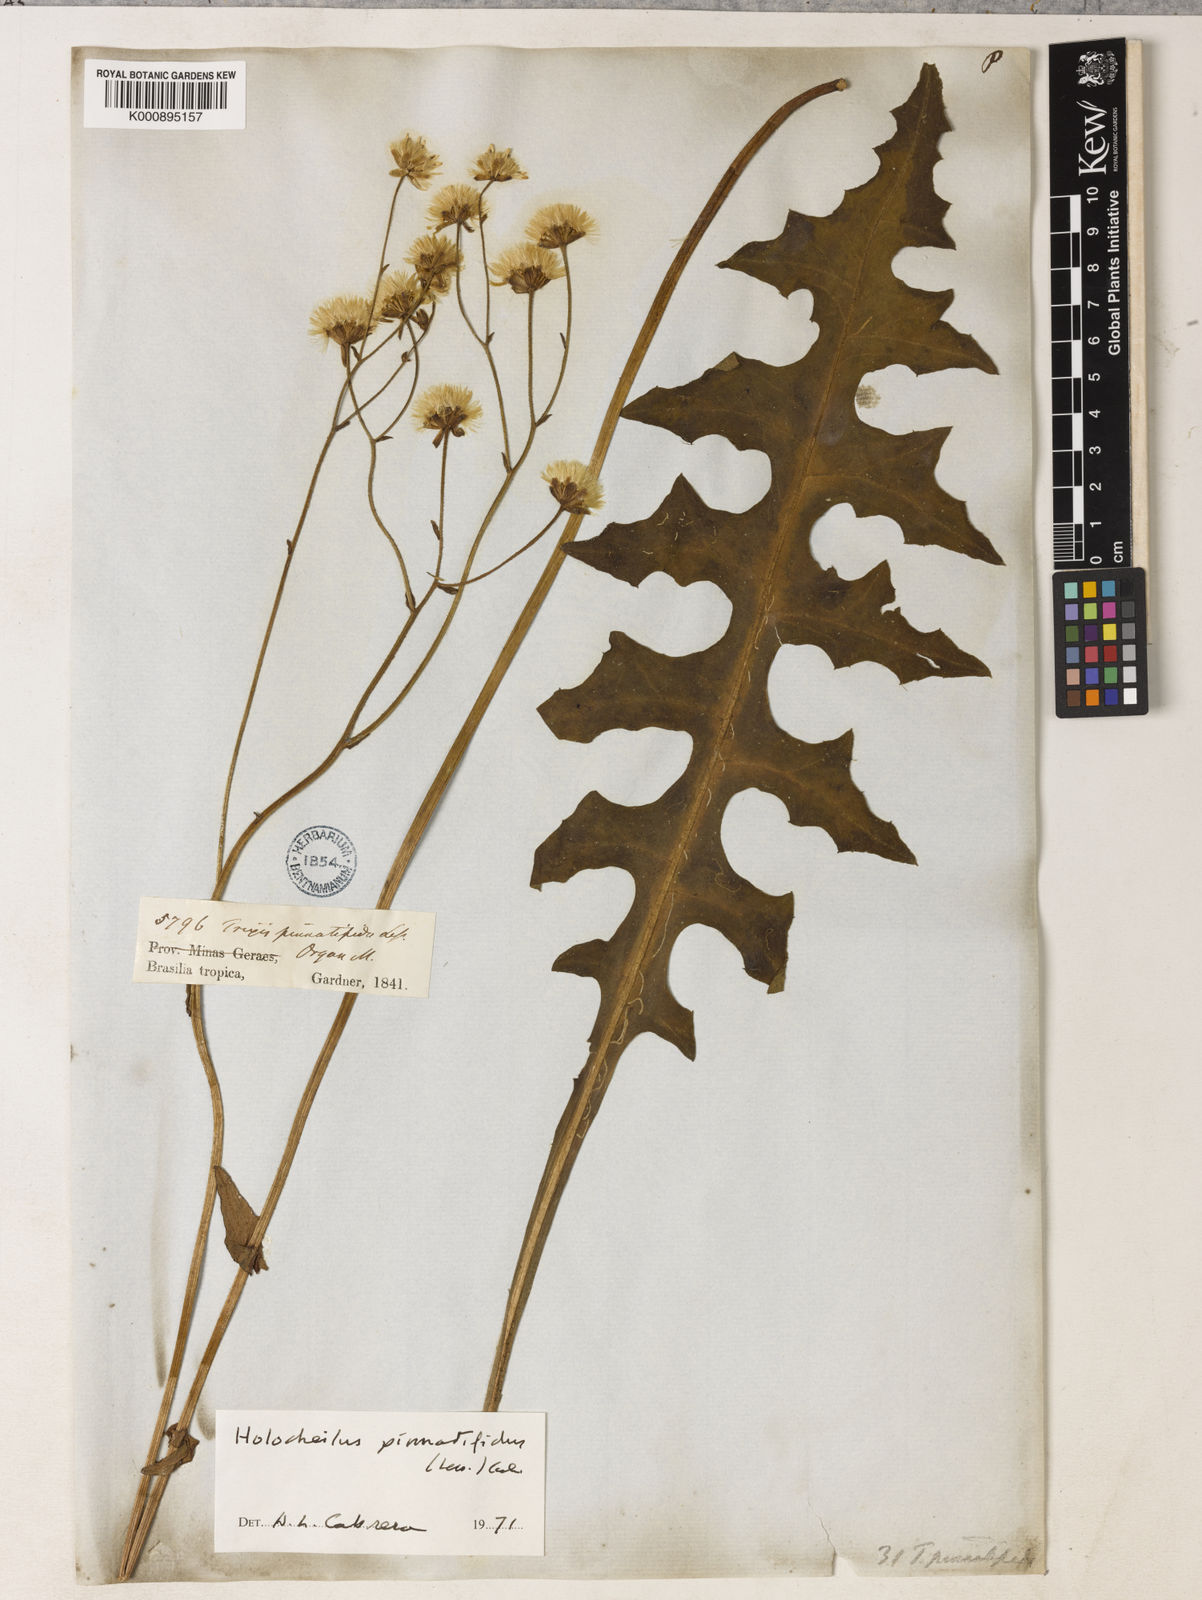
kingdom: Plantae
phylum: Tracheophyta
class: Magnoliopsida
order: Asterales
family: Asteraceae
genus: Holocheilus
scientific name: Holocheilus pinnatifidus
